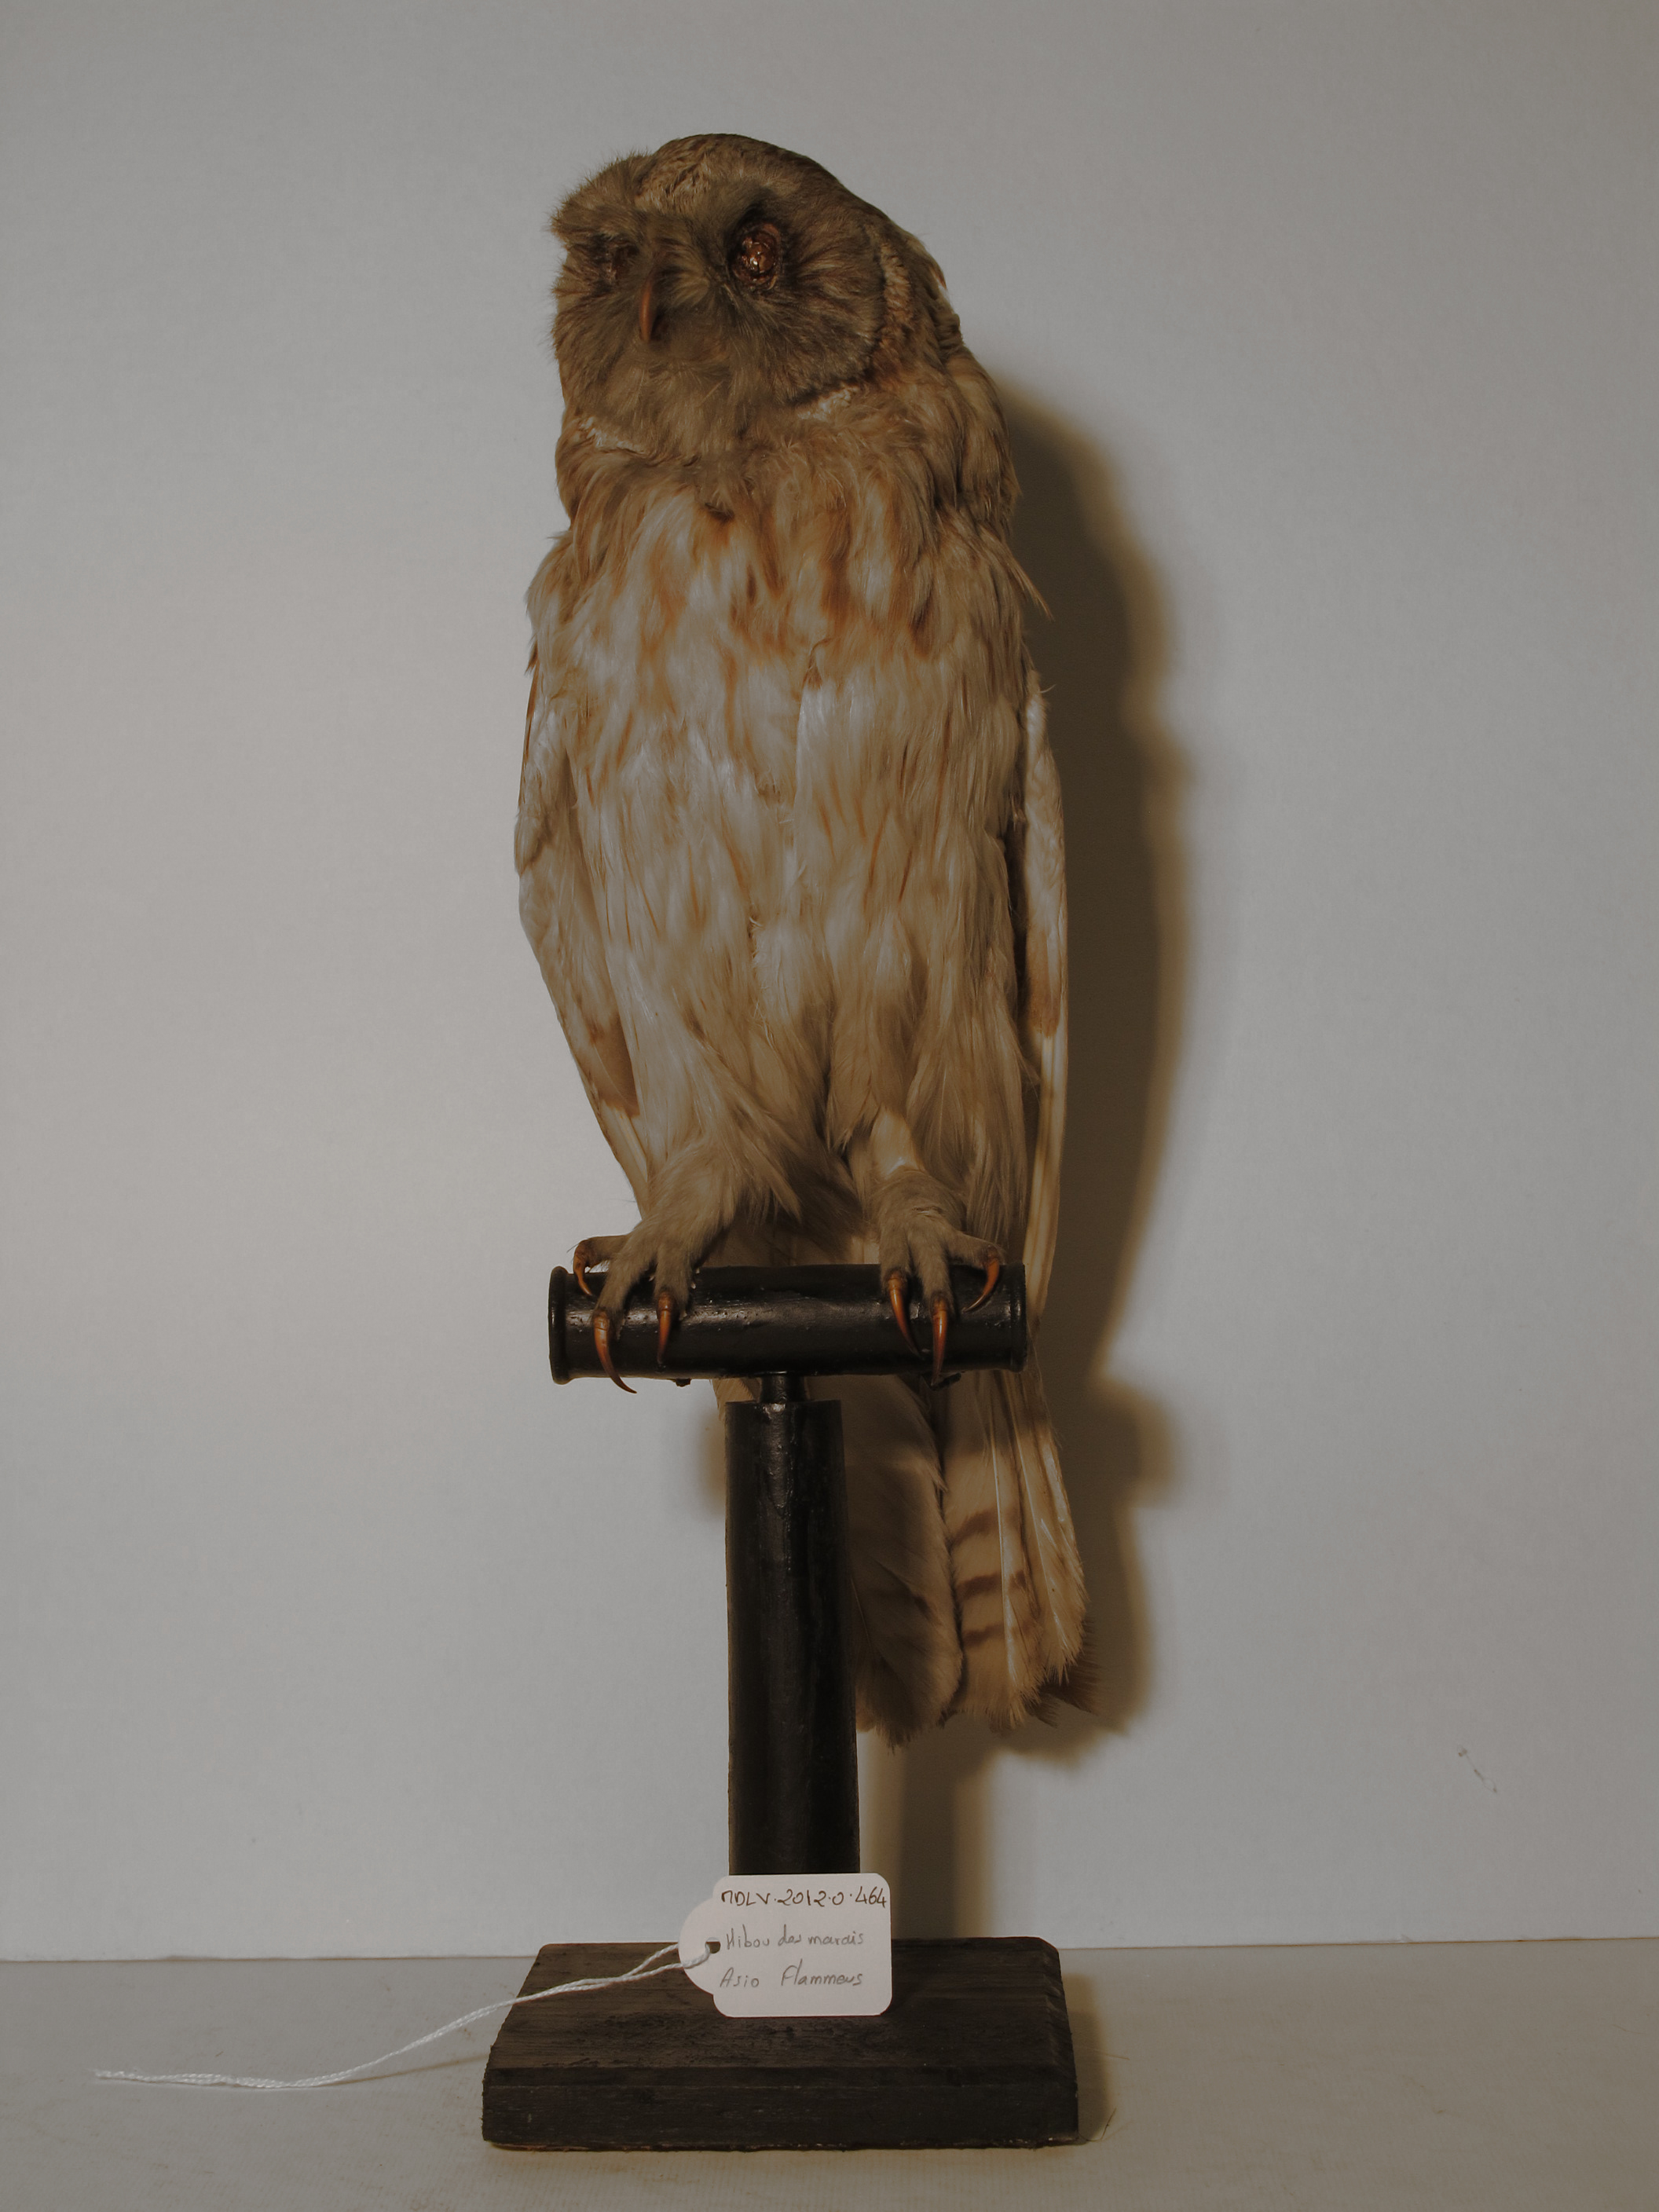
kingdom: Animalia
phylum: Chordata
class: Aves
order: Strigiformes
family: Strigidae
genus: Asio
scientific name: Asio flammeus
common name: Short-eared Owl
